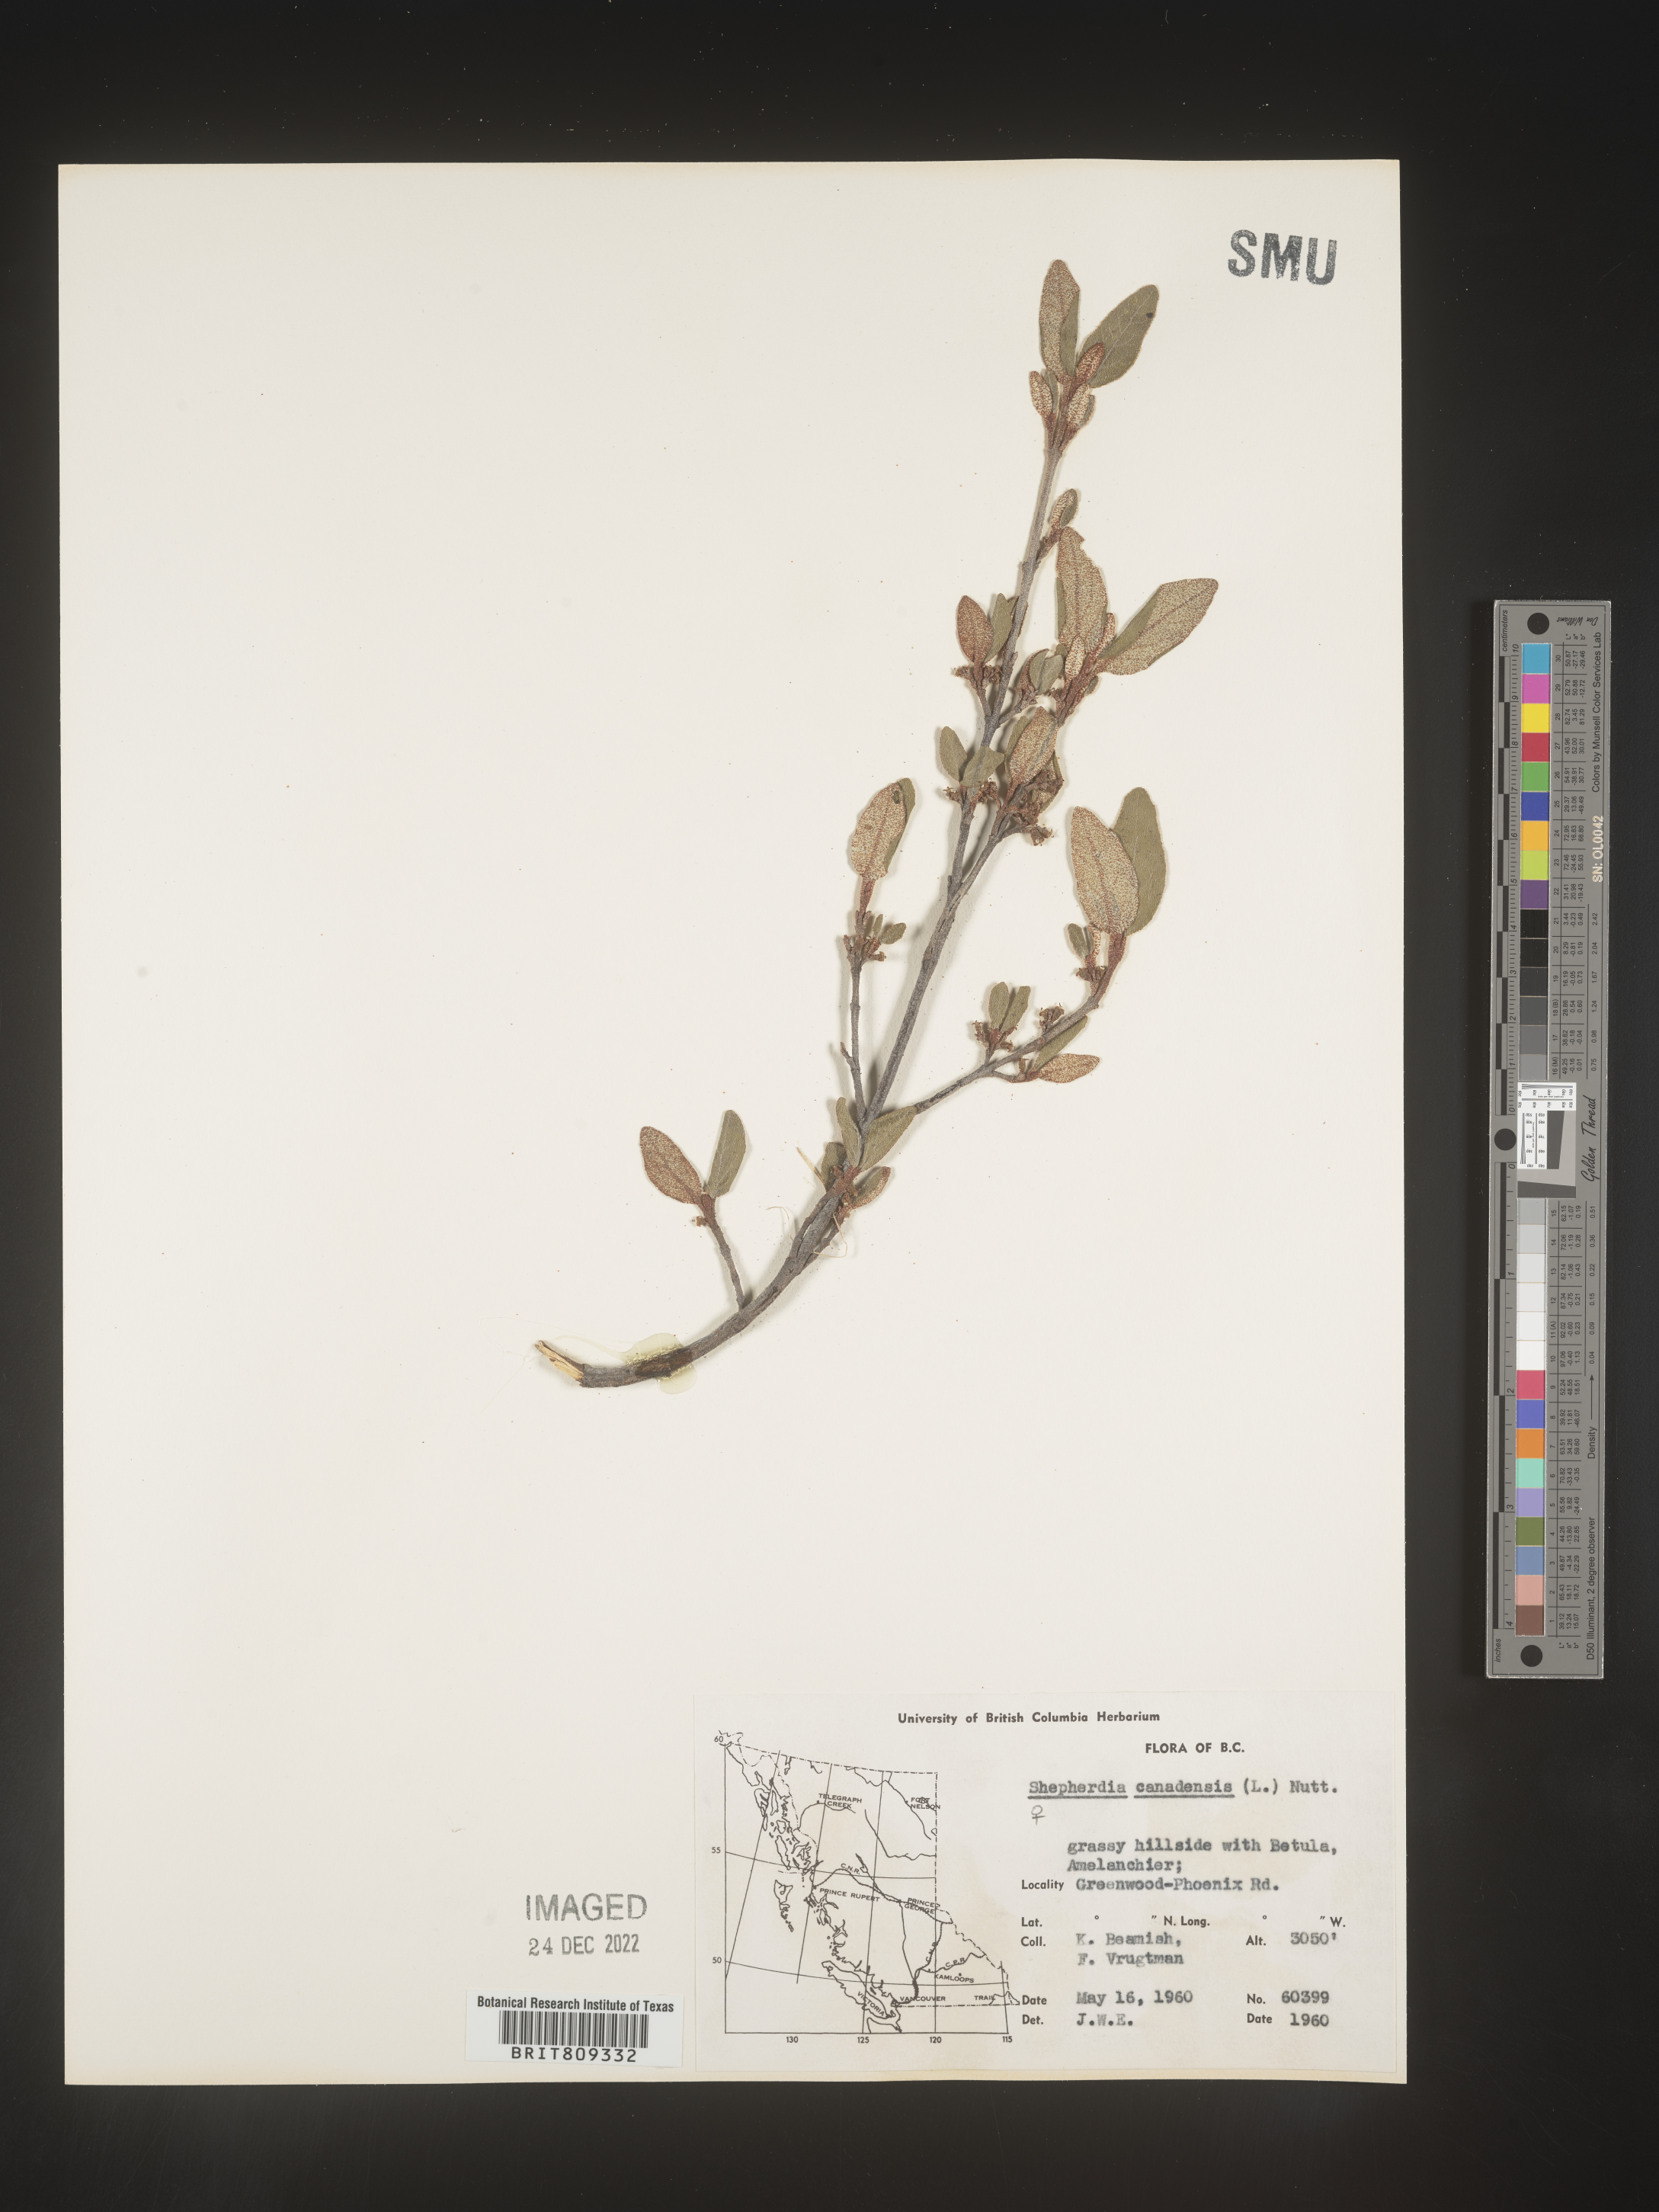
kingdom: Plantae
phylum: Tracheophyta
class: Magnoliopsida
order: Rosales
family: Elaeagnaceae
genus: Shepherdia
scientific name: Shepherdia canadensis
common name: Soapberry
